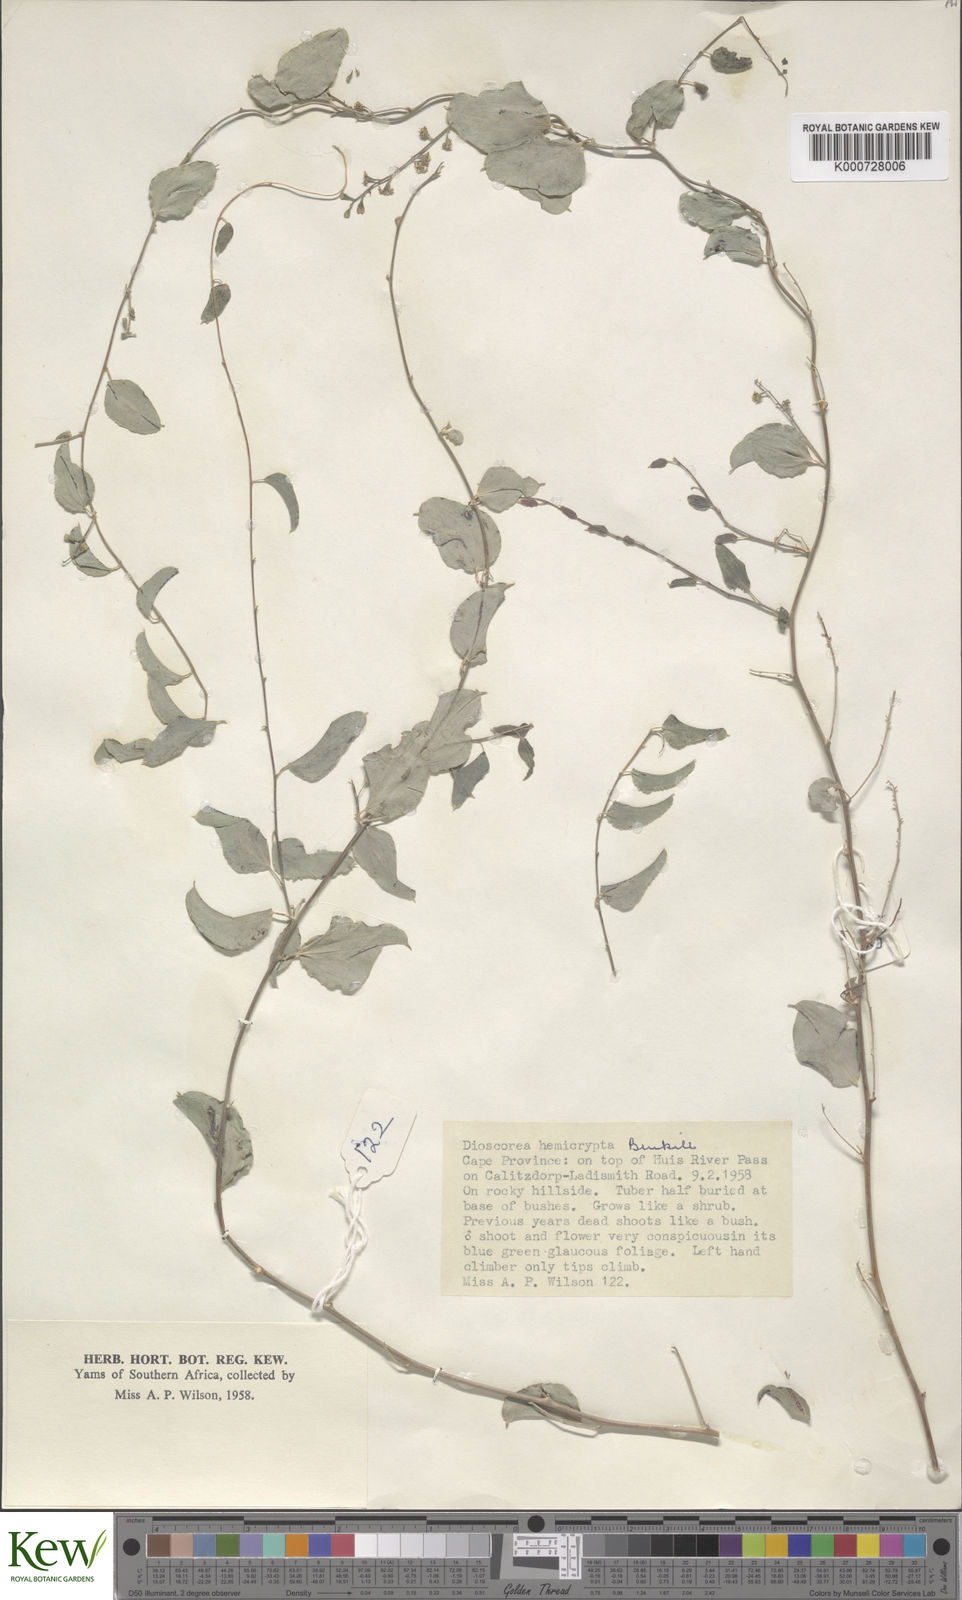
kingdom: Plantae
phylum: Tracheophyta
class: Liliopsida
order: Dioscoreales
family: Dioscoreaceae
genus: Dioscorea
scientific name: Dioscorea hemicrypta
